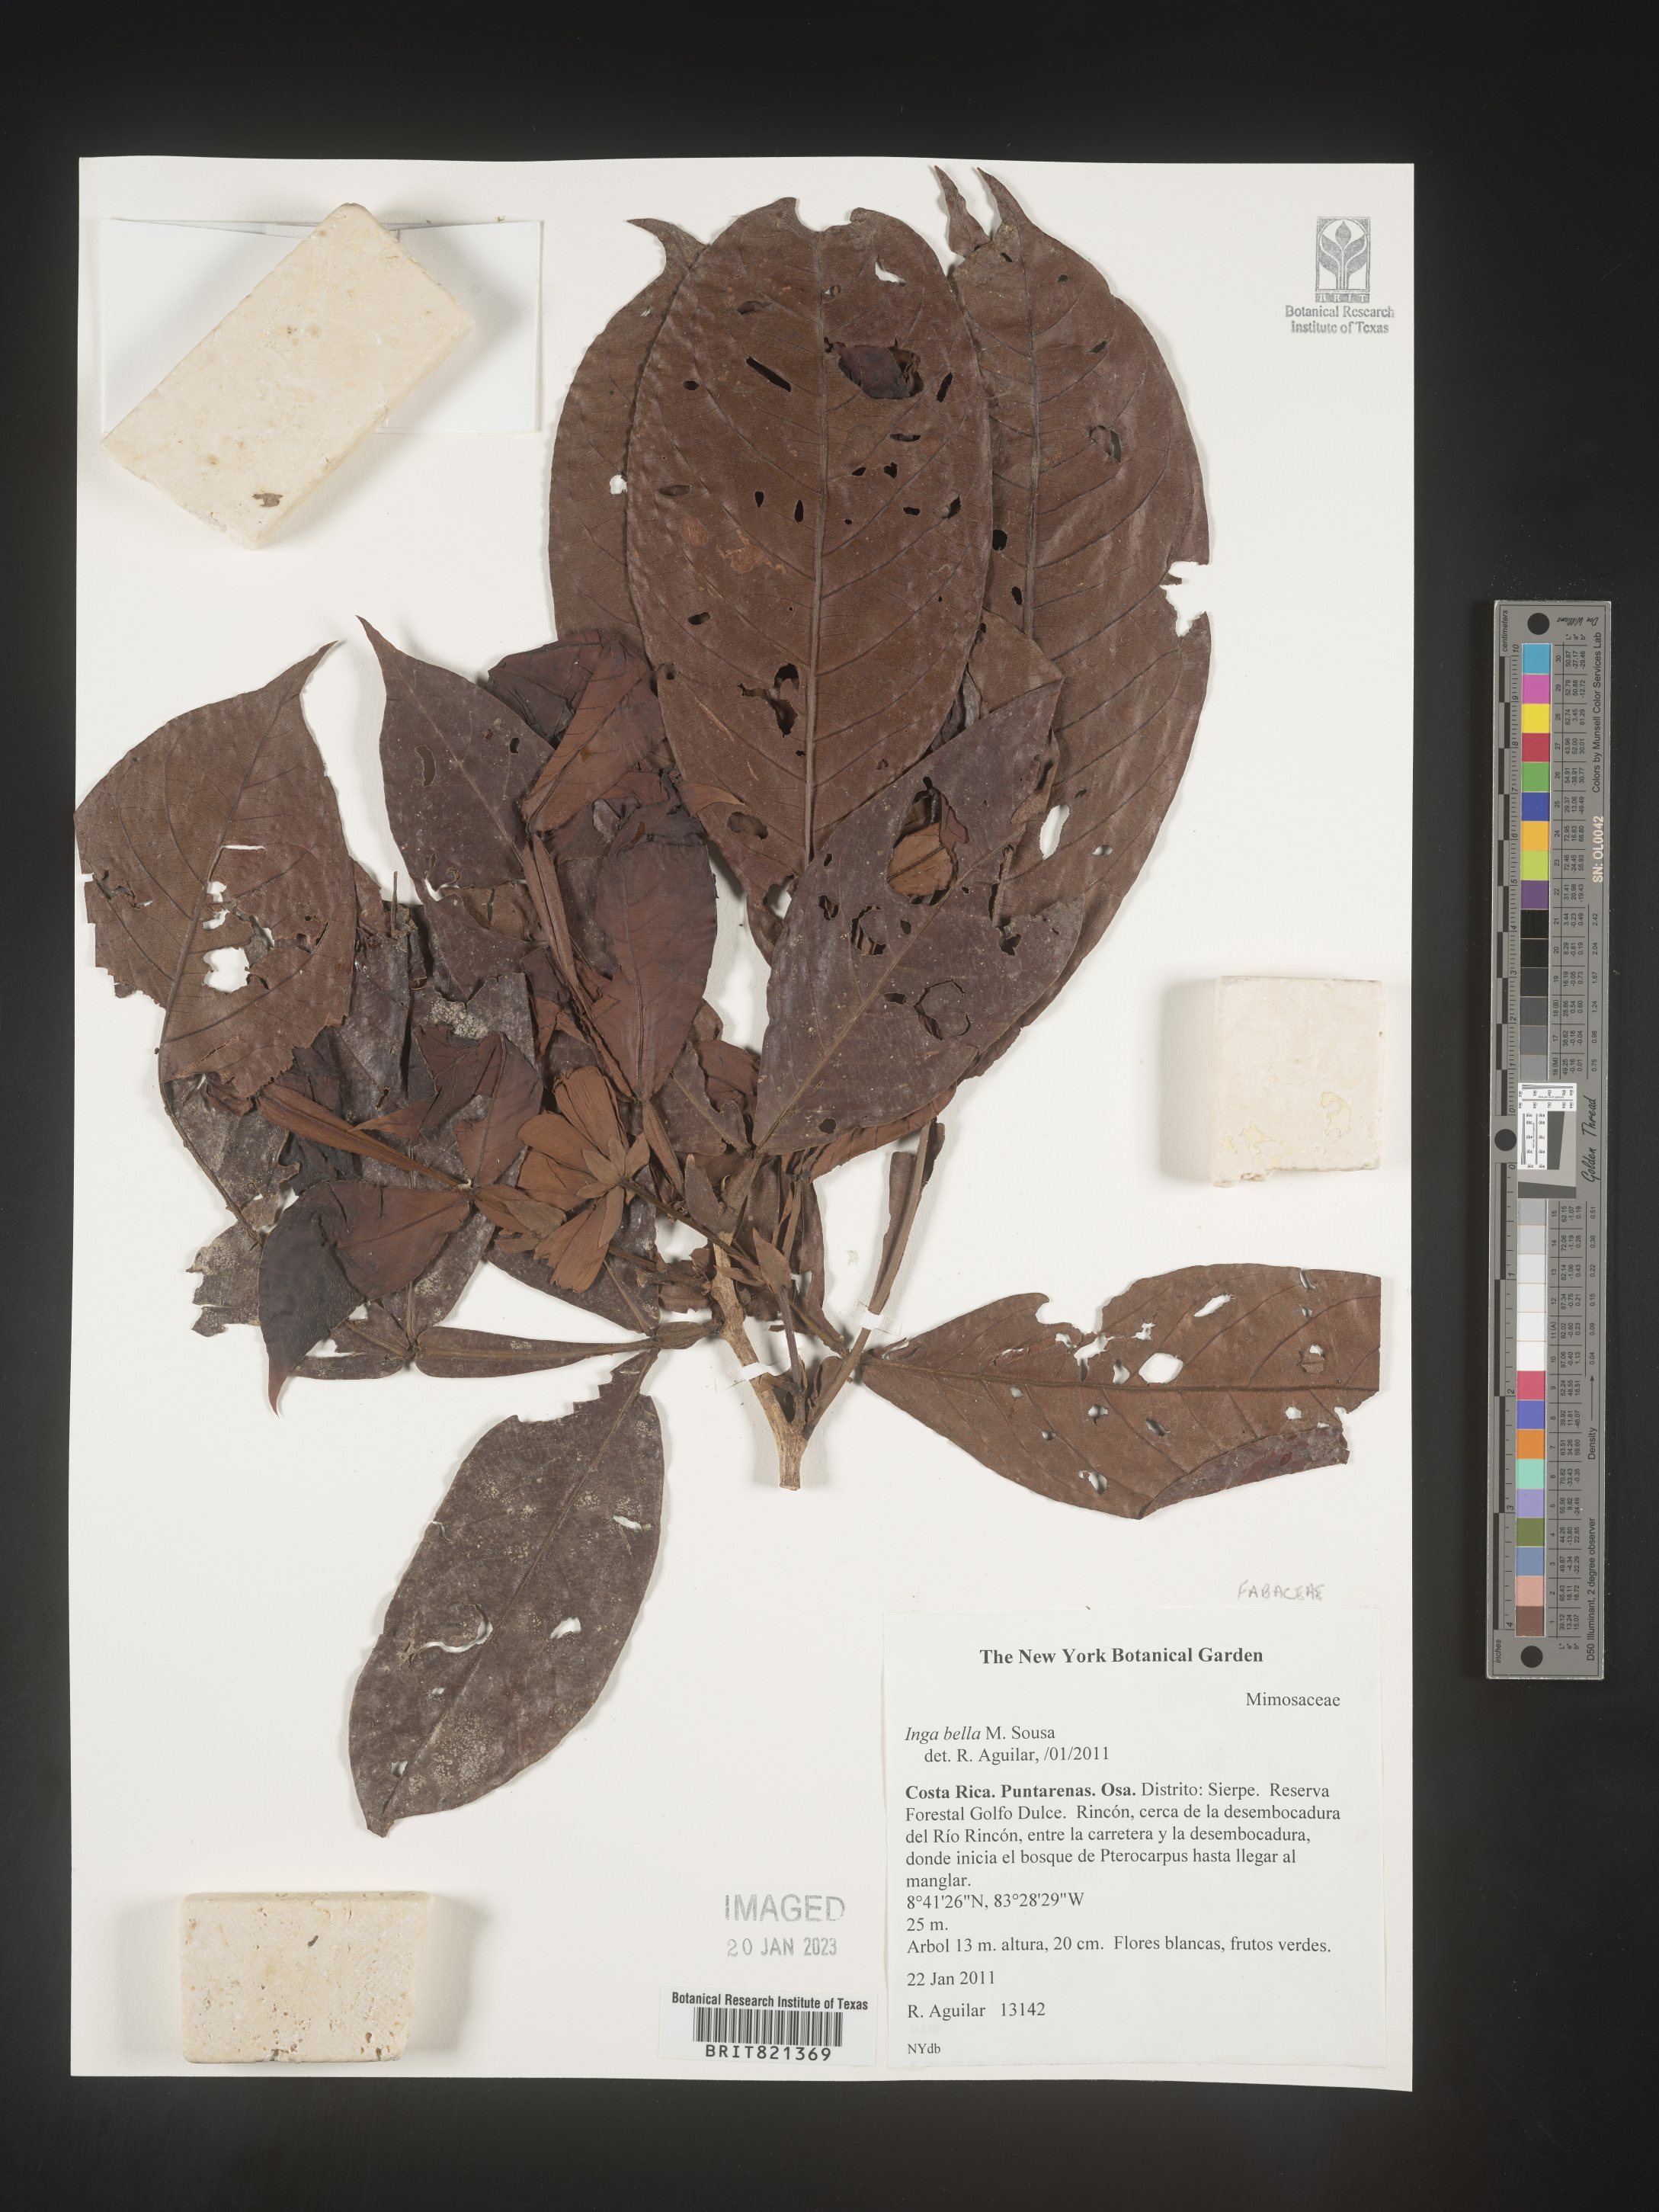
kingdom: Plantae
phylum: Tracheophyta
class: Magnoliopsida
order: Fabales
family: Fabaceae
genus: Inga
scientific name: Inga
